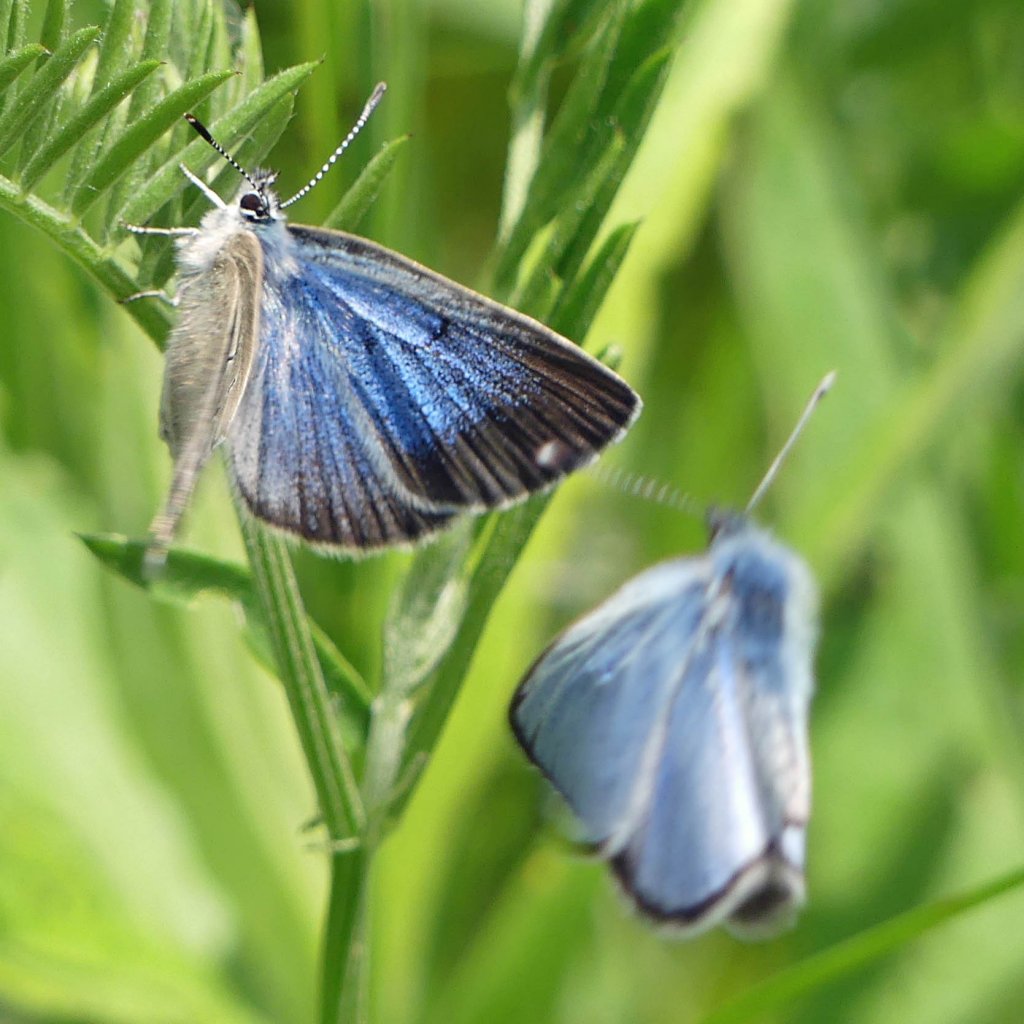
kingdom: Animalia
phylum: Arthropoda
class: Insecta
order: Lepidoptera
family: Lycaenidae
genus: Glaucopsyche
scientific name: Glaucopsyche lygdamus
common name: Silvery Blue
